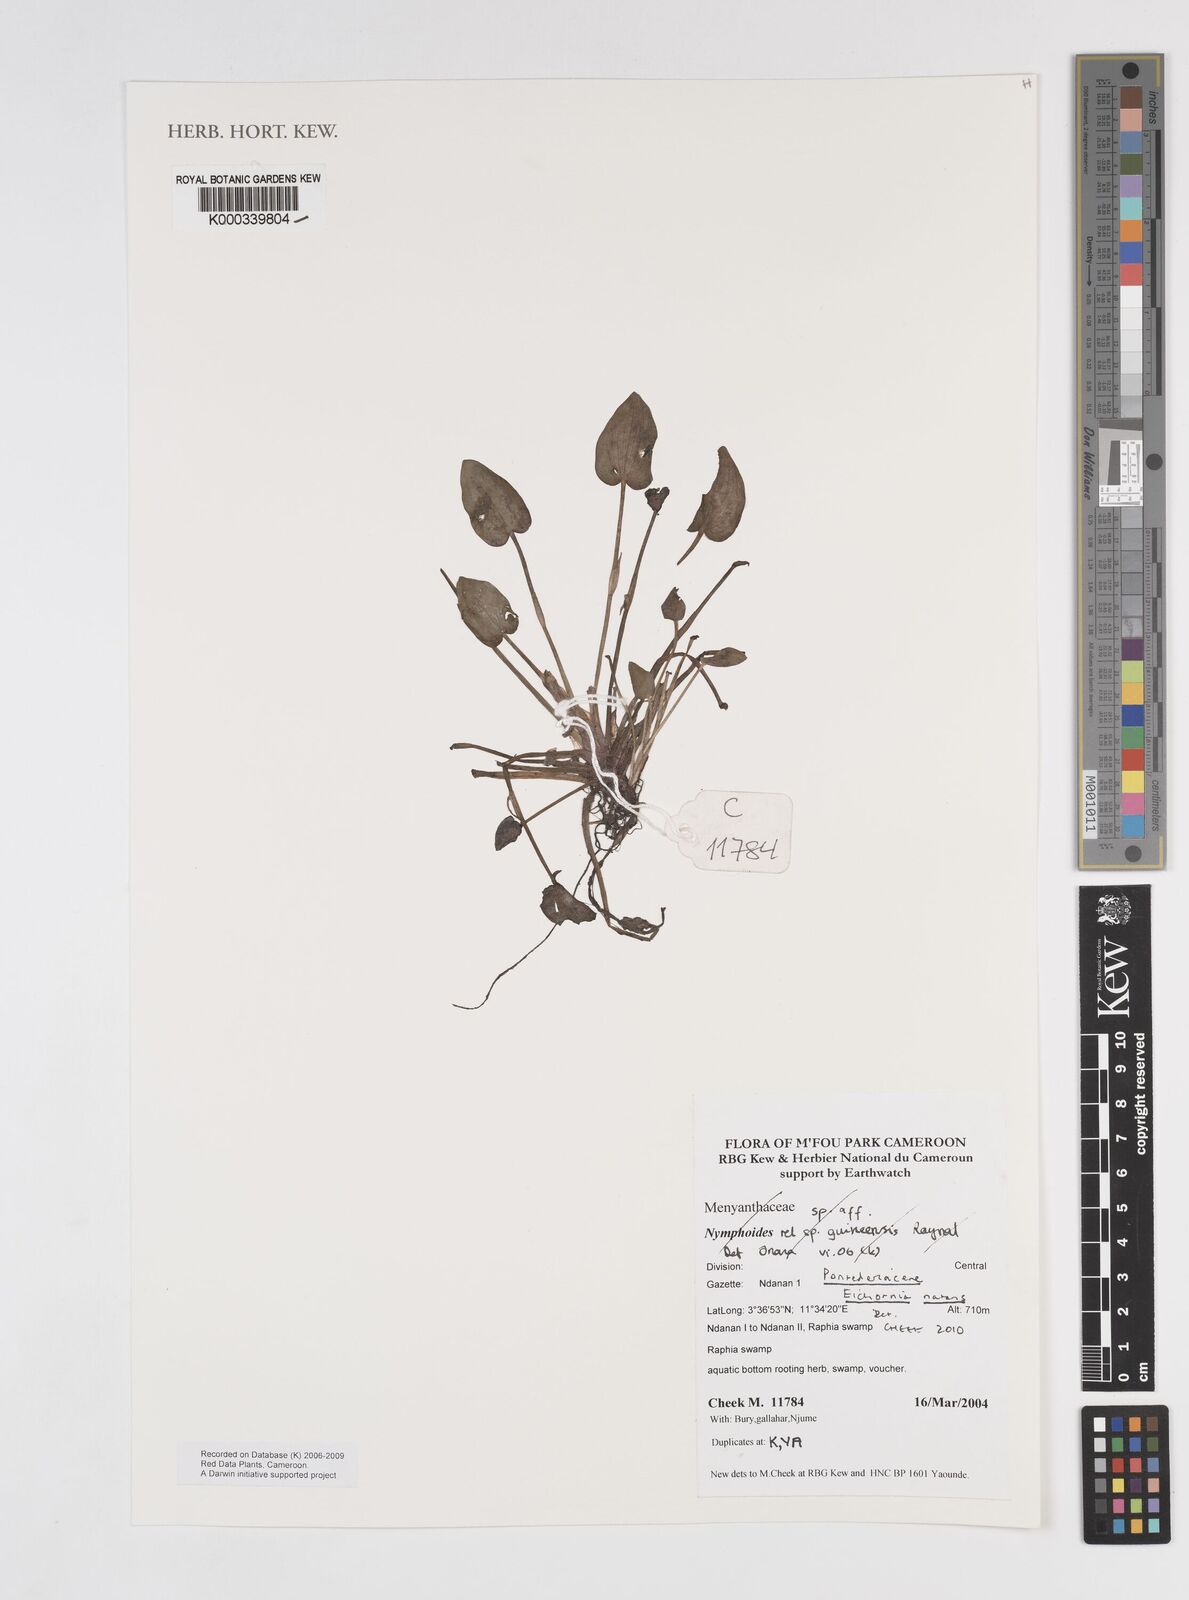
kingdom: Plantae
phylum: Tracheophyta
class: Liliopsida
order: Commelinales
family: Pontederiaceae
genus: Pontederia
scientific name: Pontederia natans
